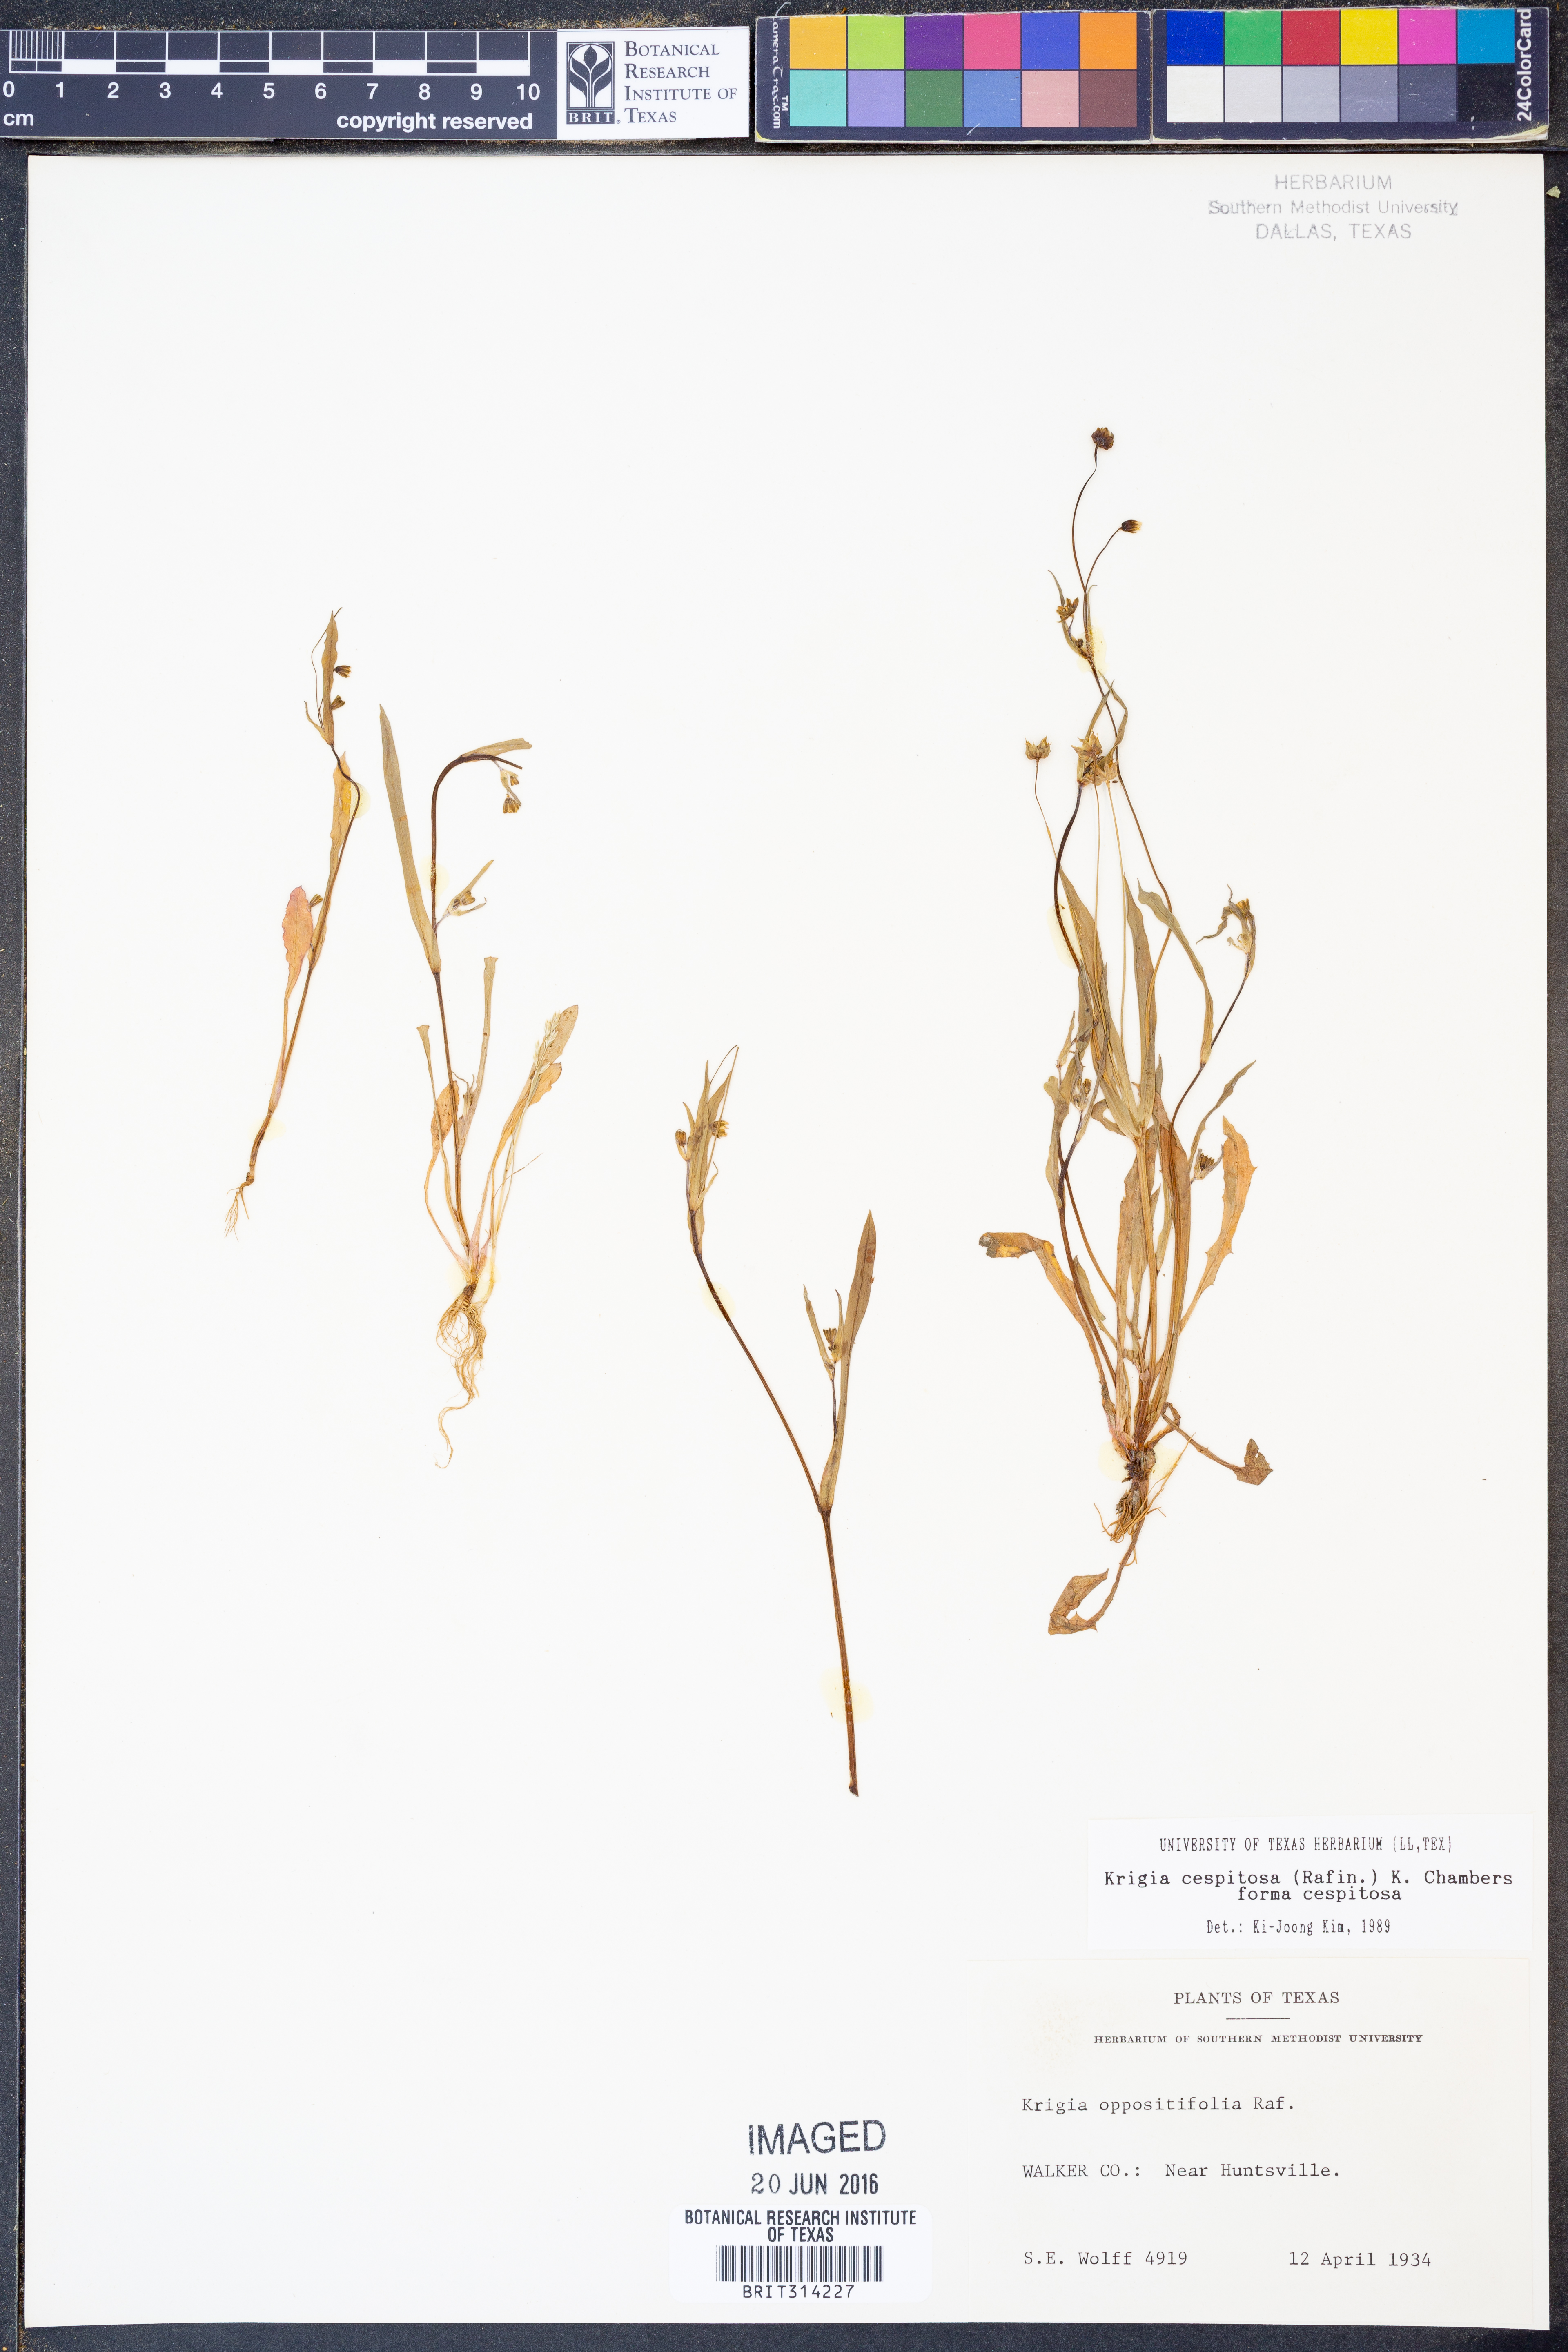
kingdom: Plantae
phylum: Tracheophyta
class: Magnoliopsida
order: Asterales
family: Asteraceae
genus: Krigia
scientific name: Krigia cespitosa
